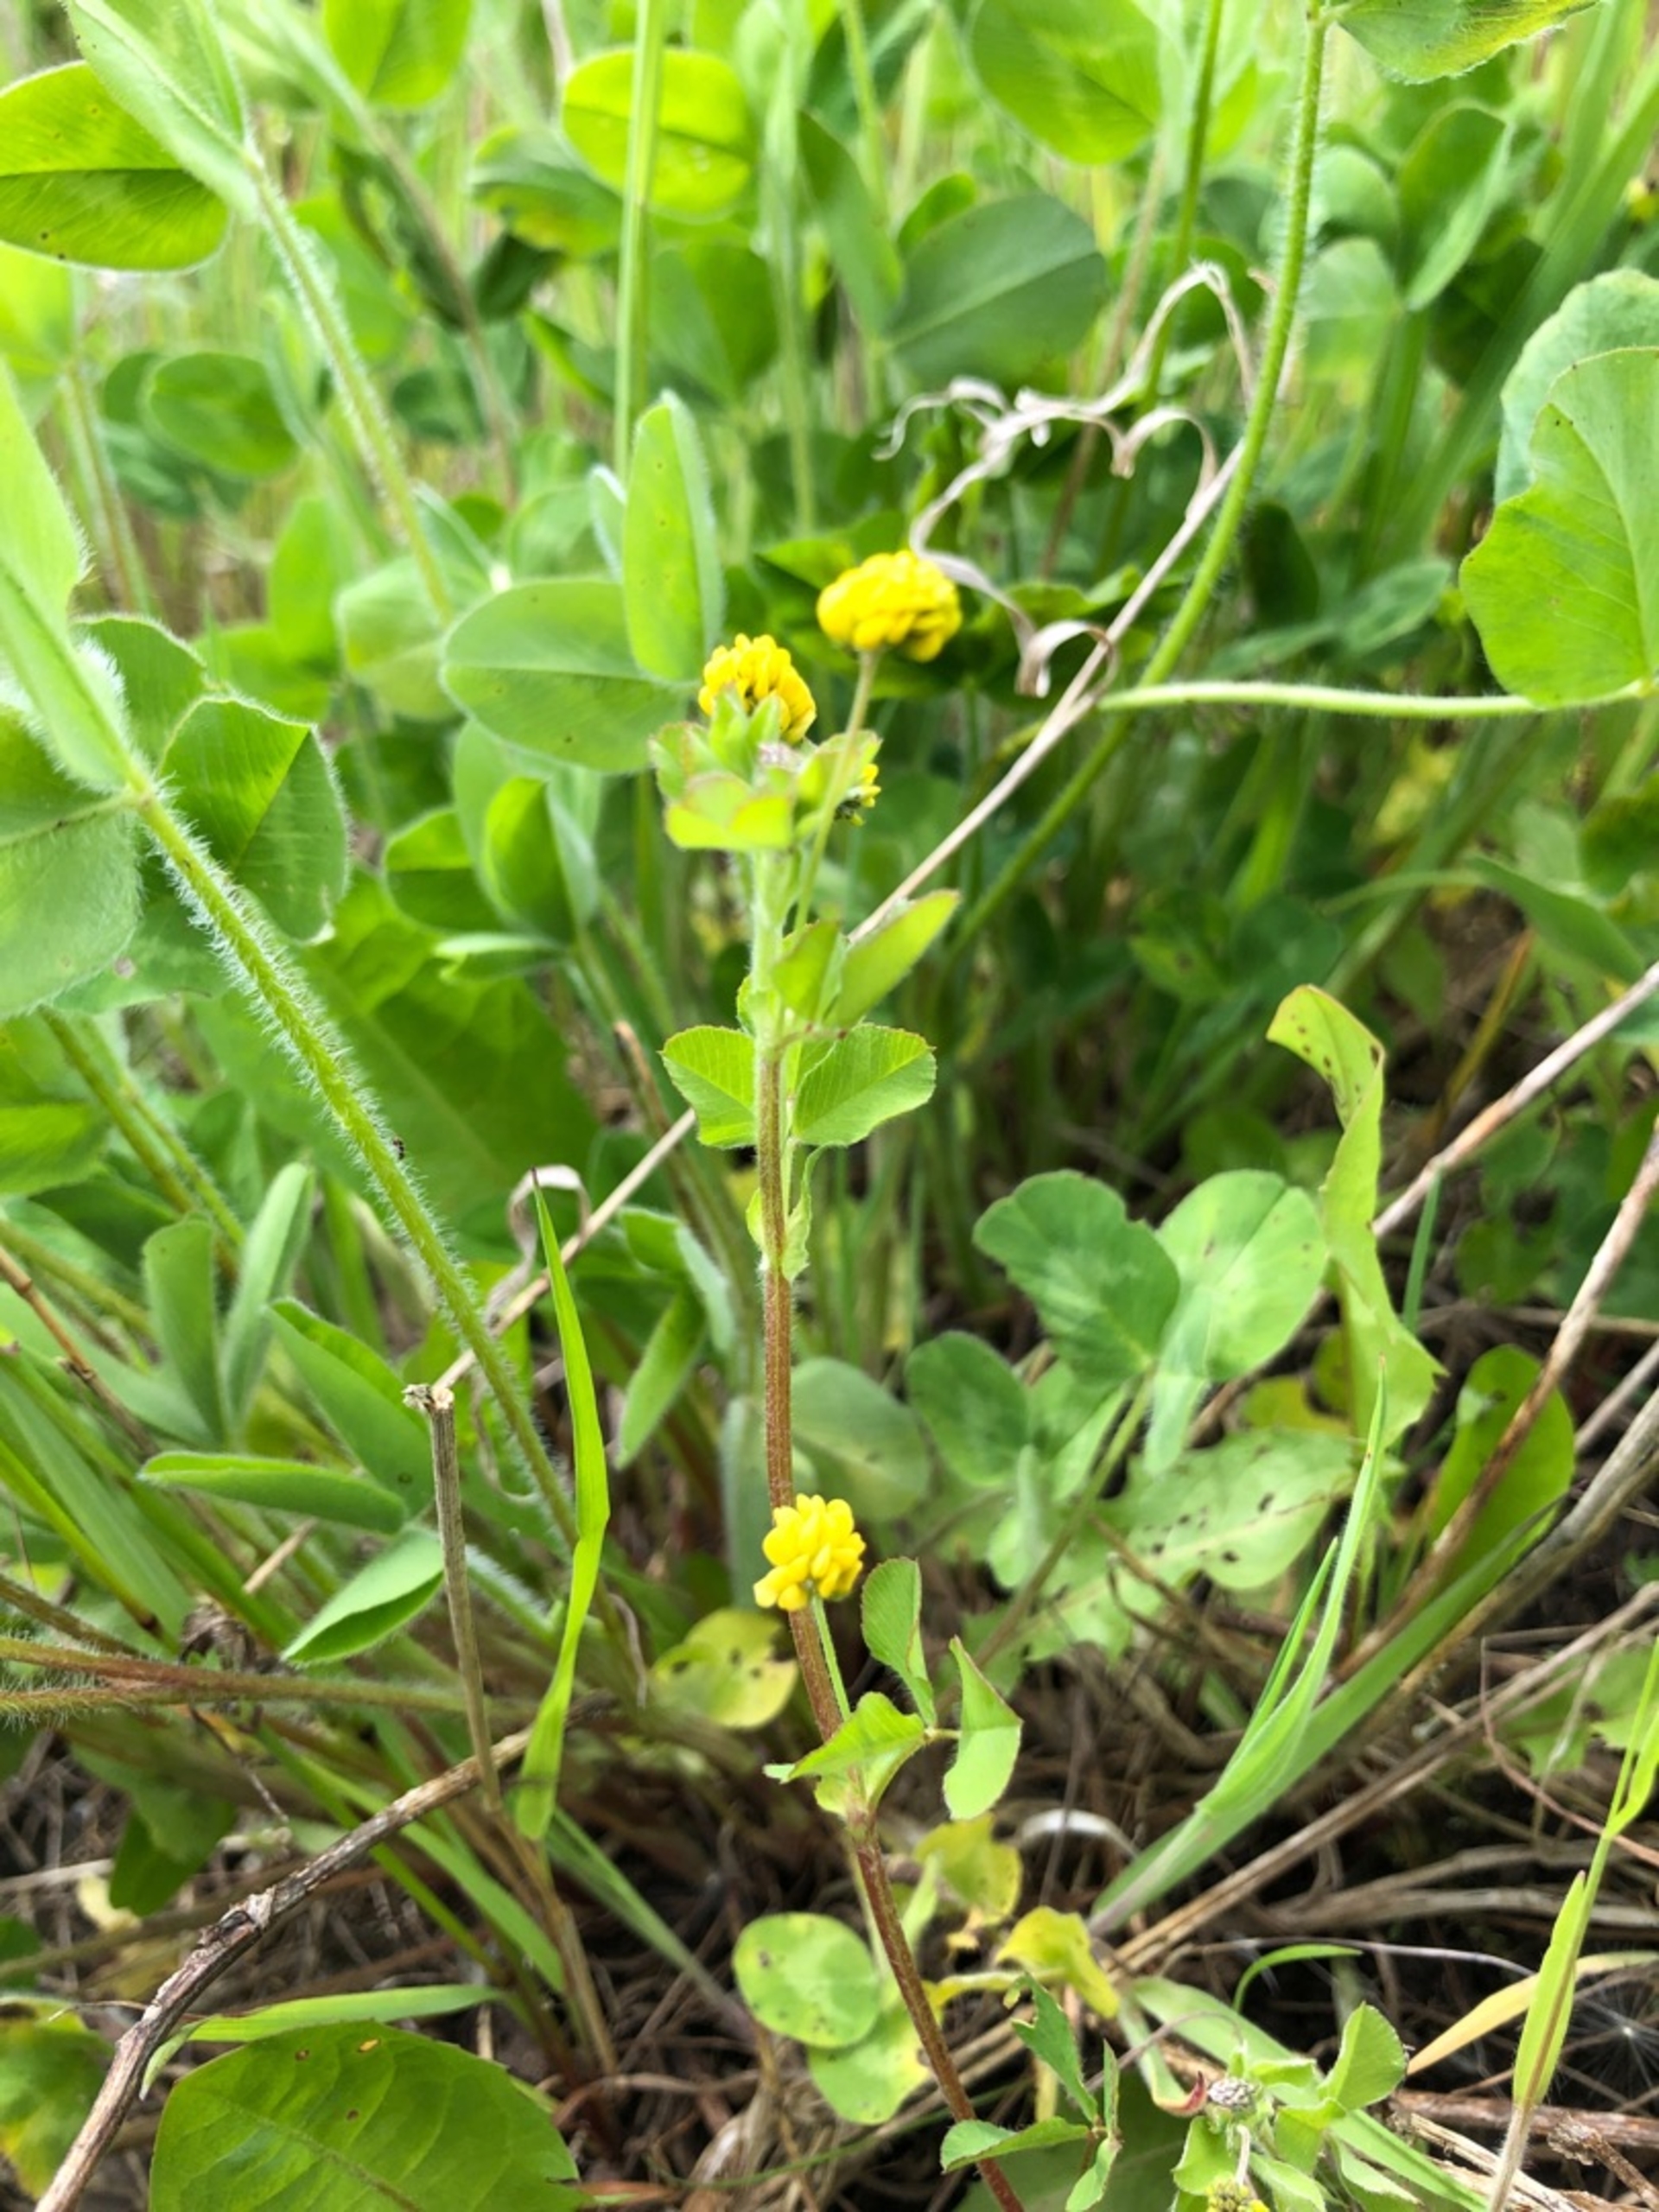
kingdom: Plantae
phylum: Tracheophyta
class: Magnoliopsida
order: Fabales
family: Fabaceae
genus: Medicago
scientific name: Medicago lupulina
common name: Humle-sneglebælg
